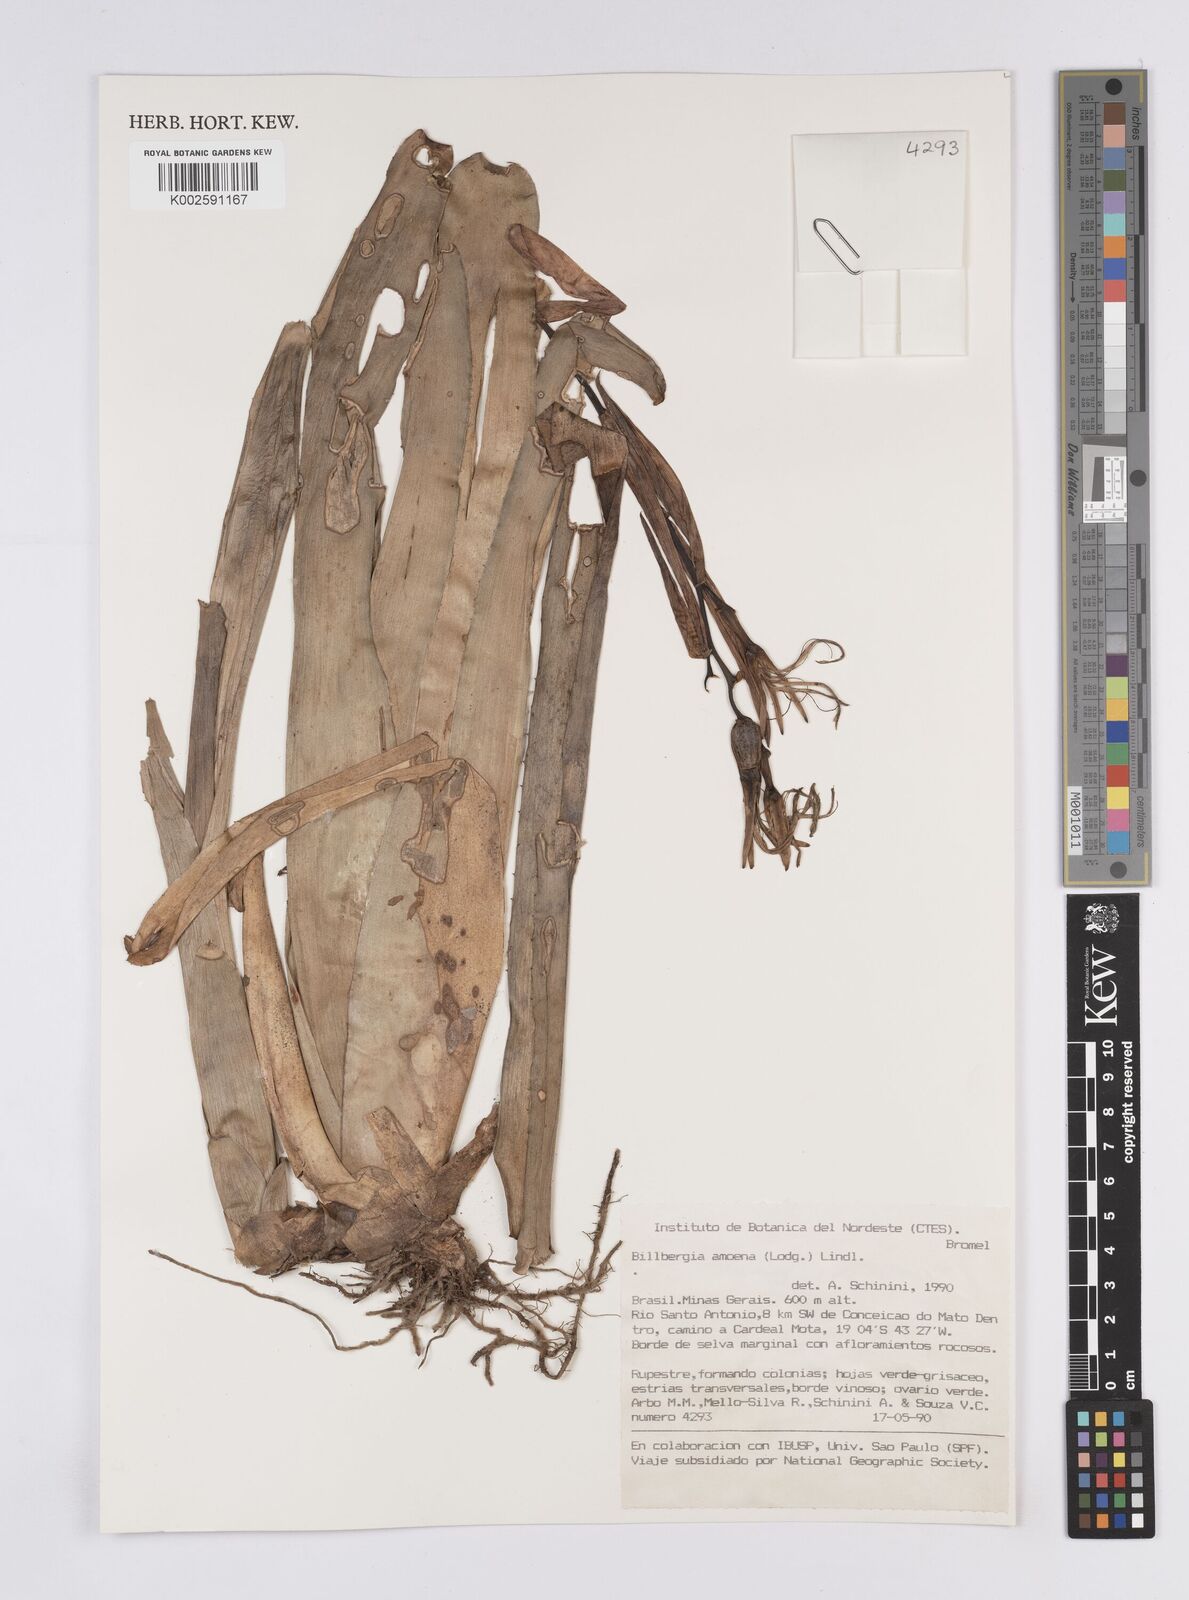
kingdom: Plantae
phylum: Tracheophyta
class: Liliopsida
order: Poales
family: Bromeliaceae
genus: Billbergia
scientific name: Billbergia amoena
